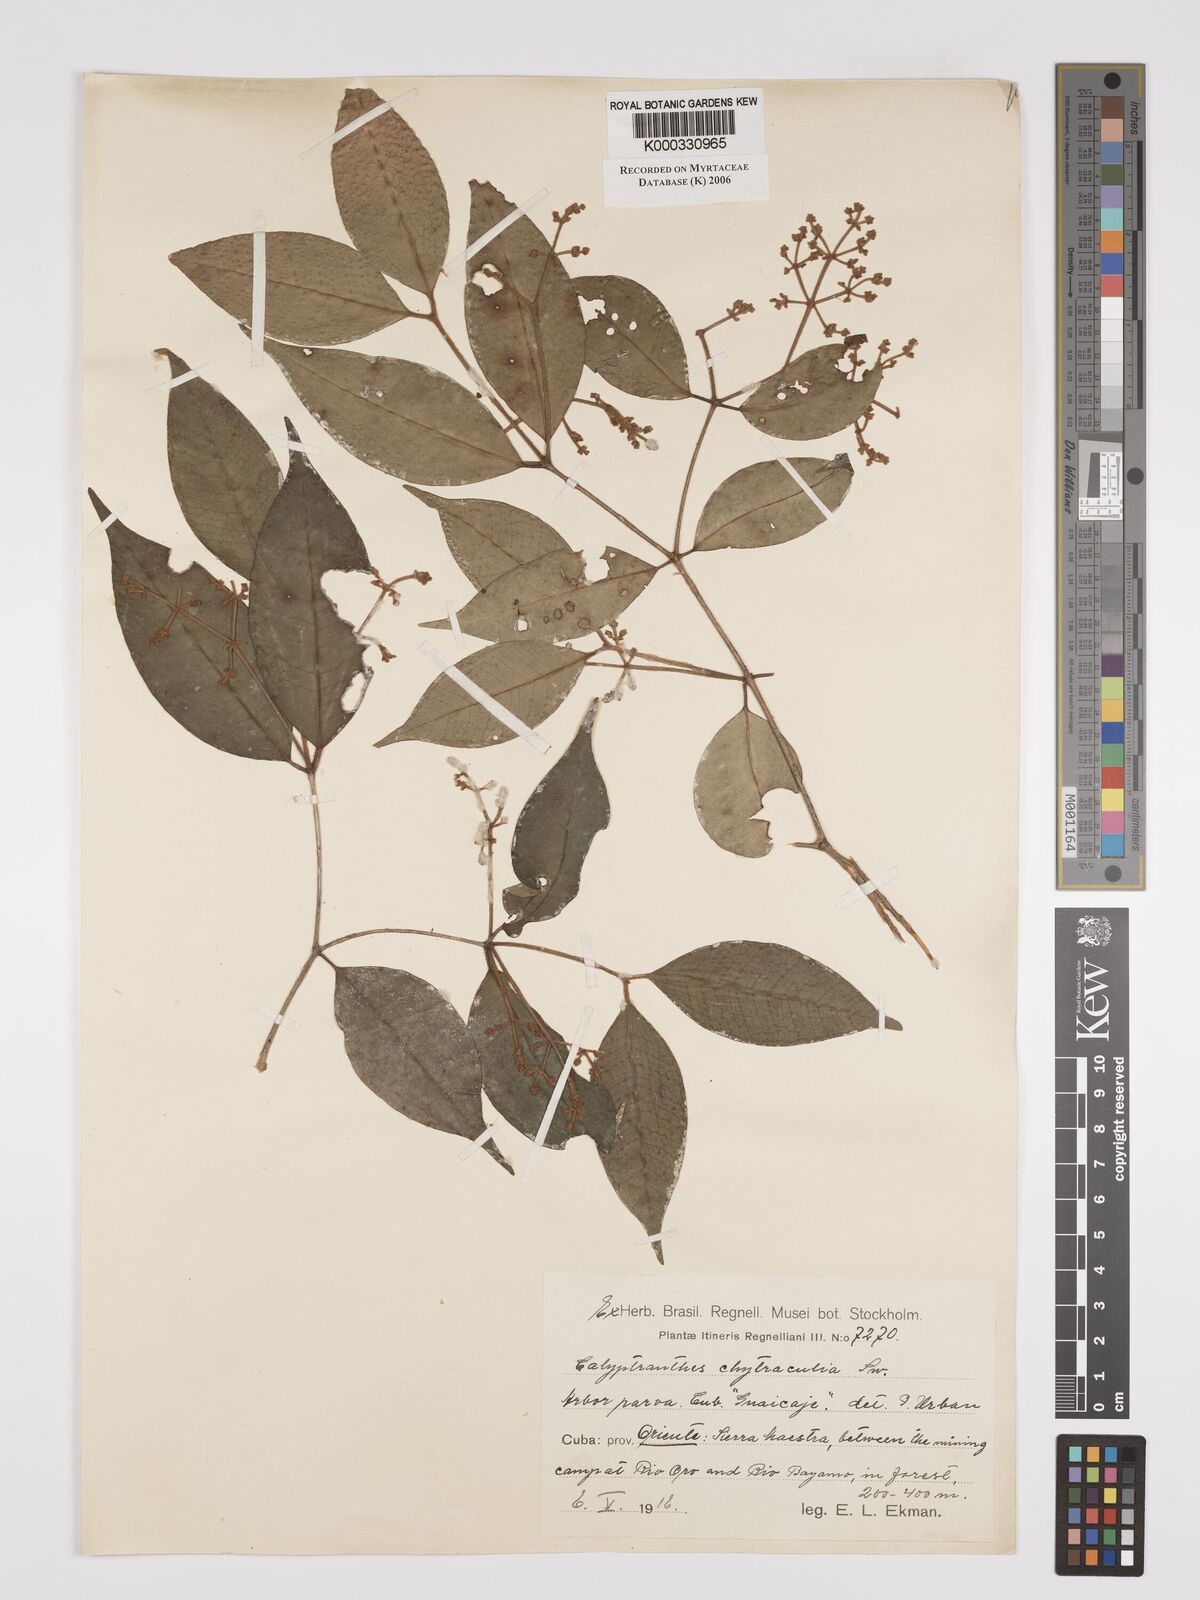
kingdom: Plantae
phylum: Tracheophyta
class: Magnoliopsida
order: Myrtales
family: Myrtaceae
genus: Myrcia
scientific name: Myrcia chytraculia
